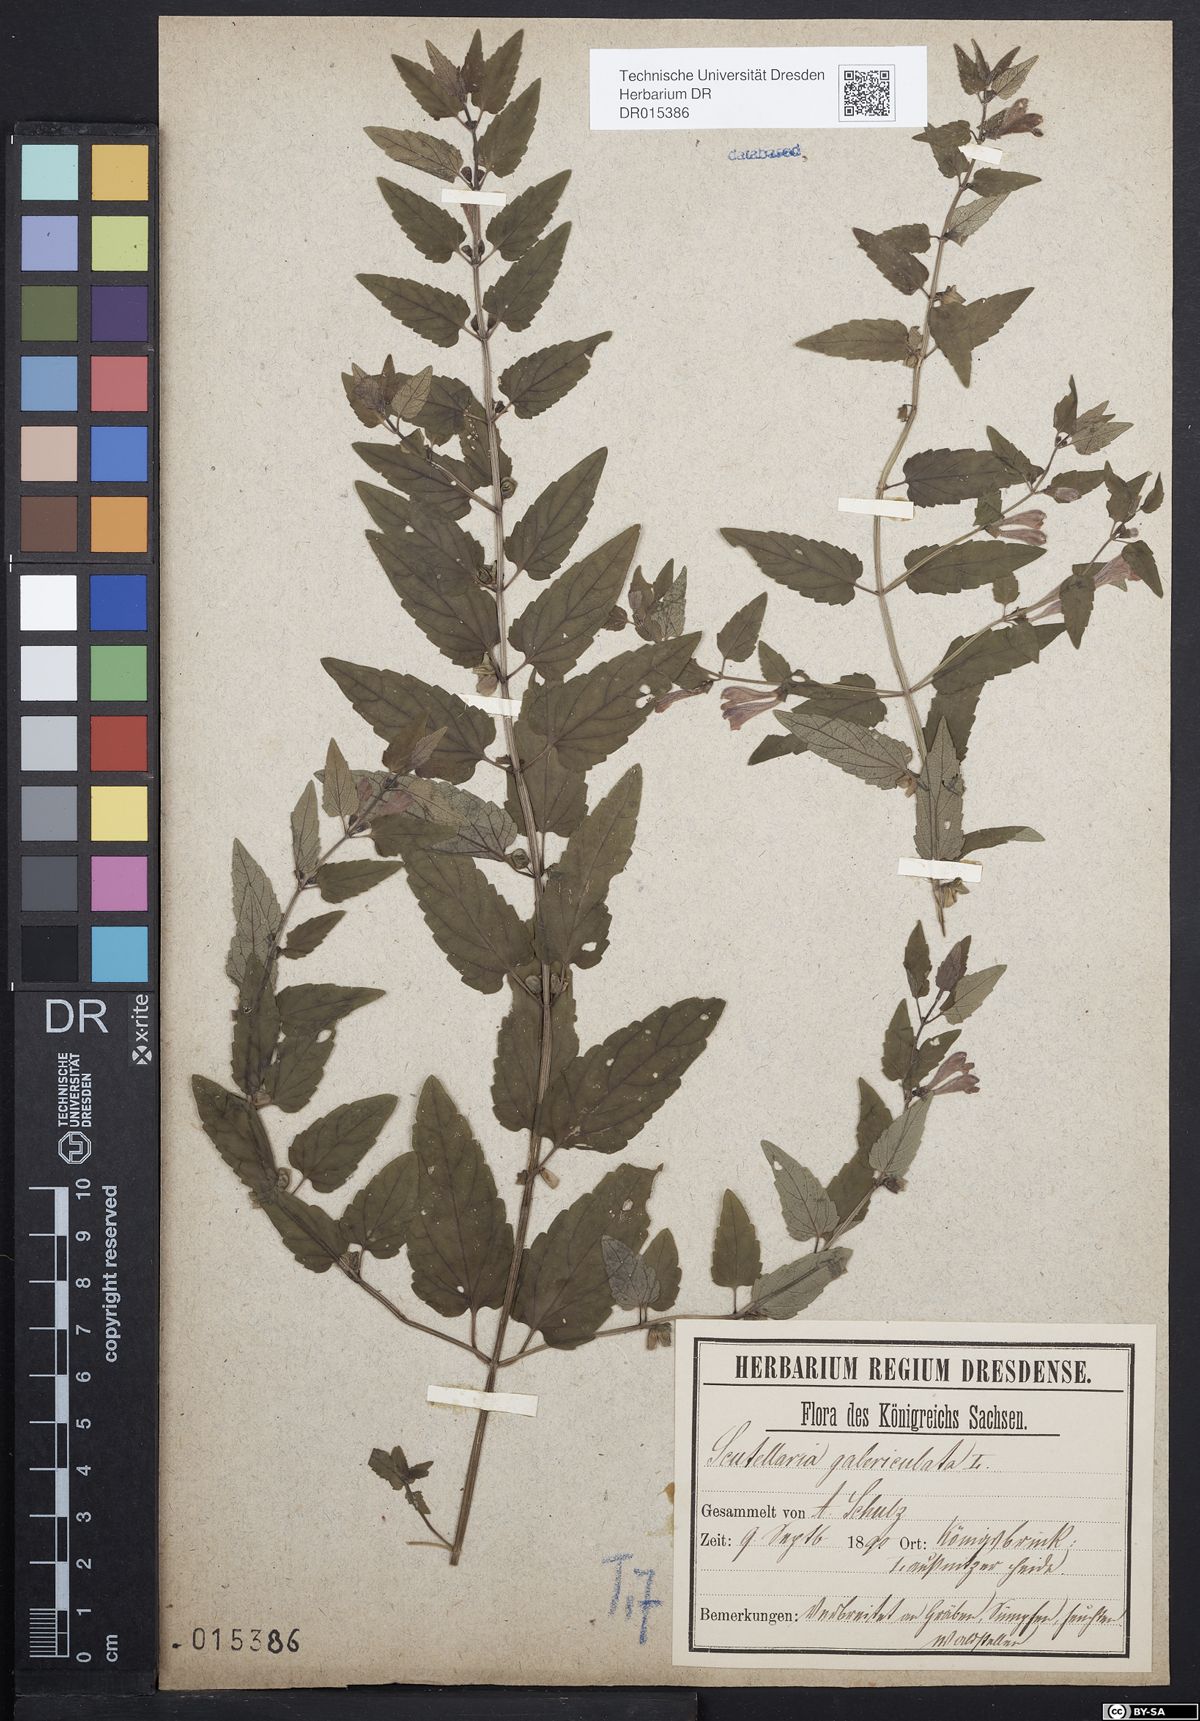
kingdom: Plantae
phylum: Tracheophyta
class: Magnoliopsida
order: Lamiales
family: Lamiaceae
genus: Scutellaria
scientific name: Scutellaria galericulata
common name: Skullcap
